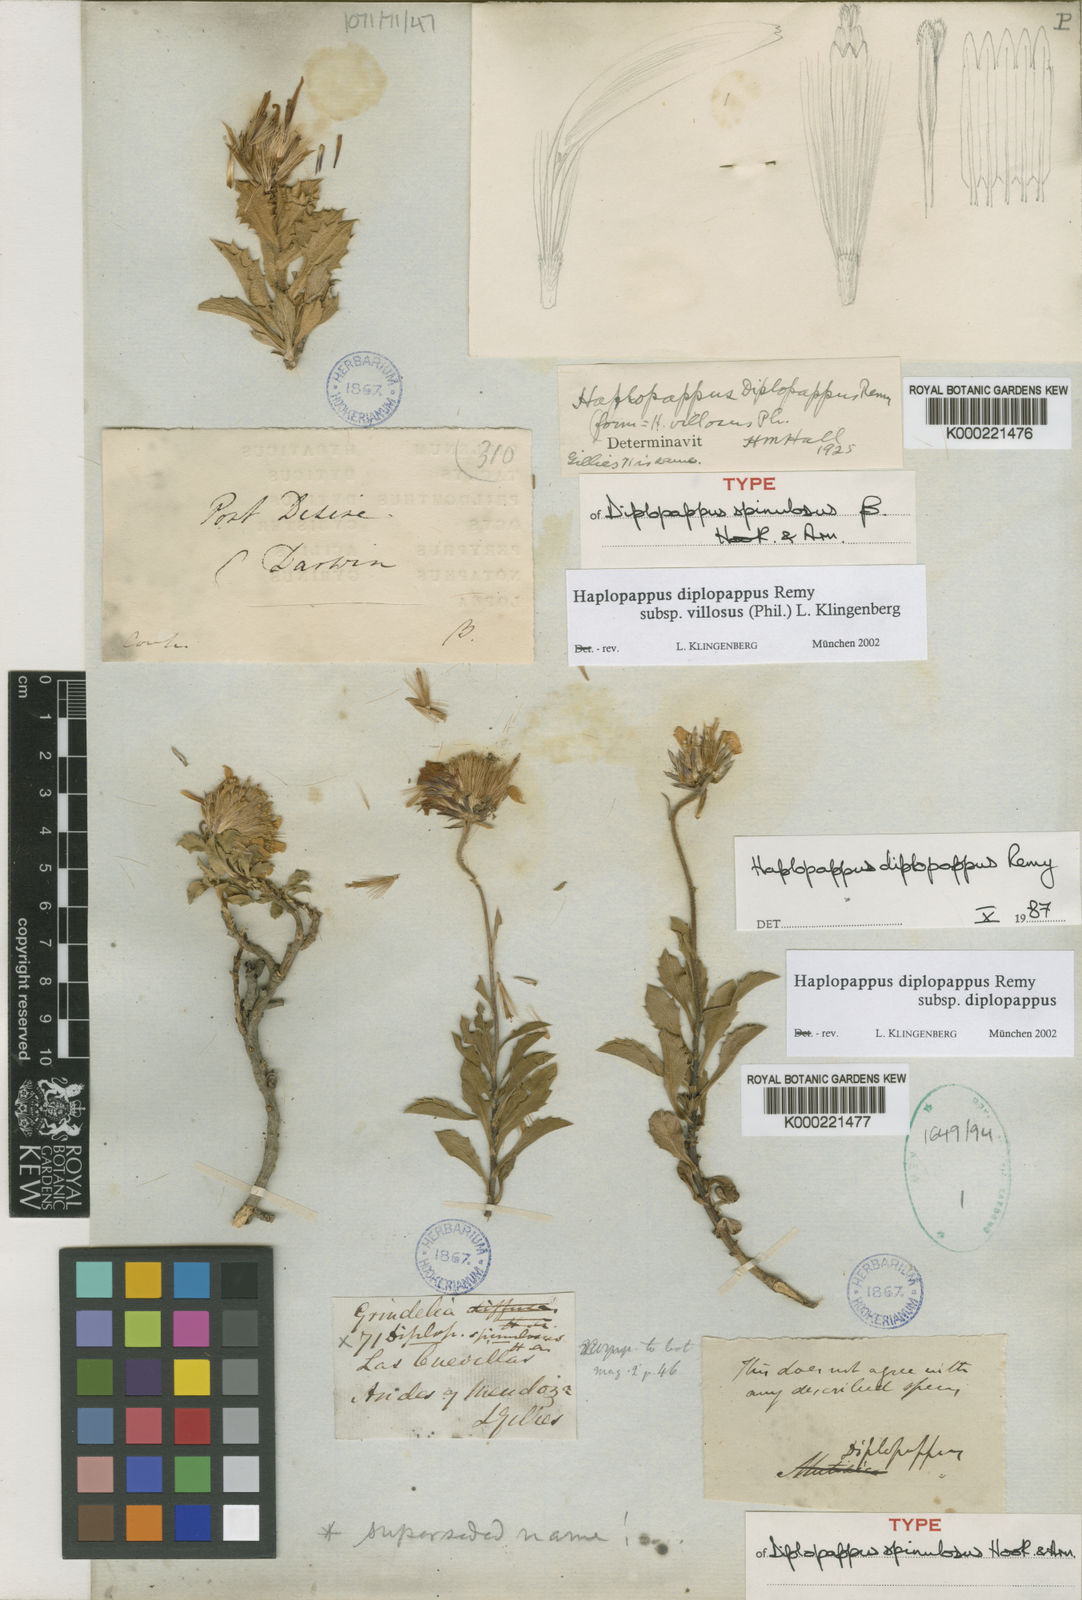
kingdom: Plantae
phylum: Tracheophyta
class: Magnoliopsida
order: Asterales
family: Asteraceae
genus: Haplopappus
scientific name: Haplopappus diplopappus
